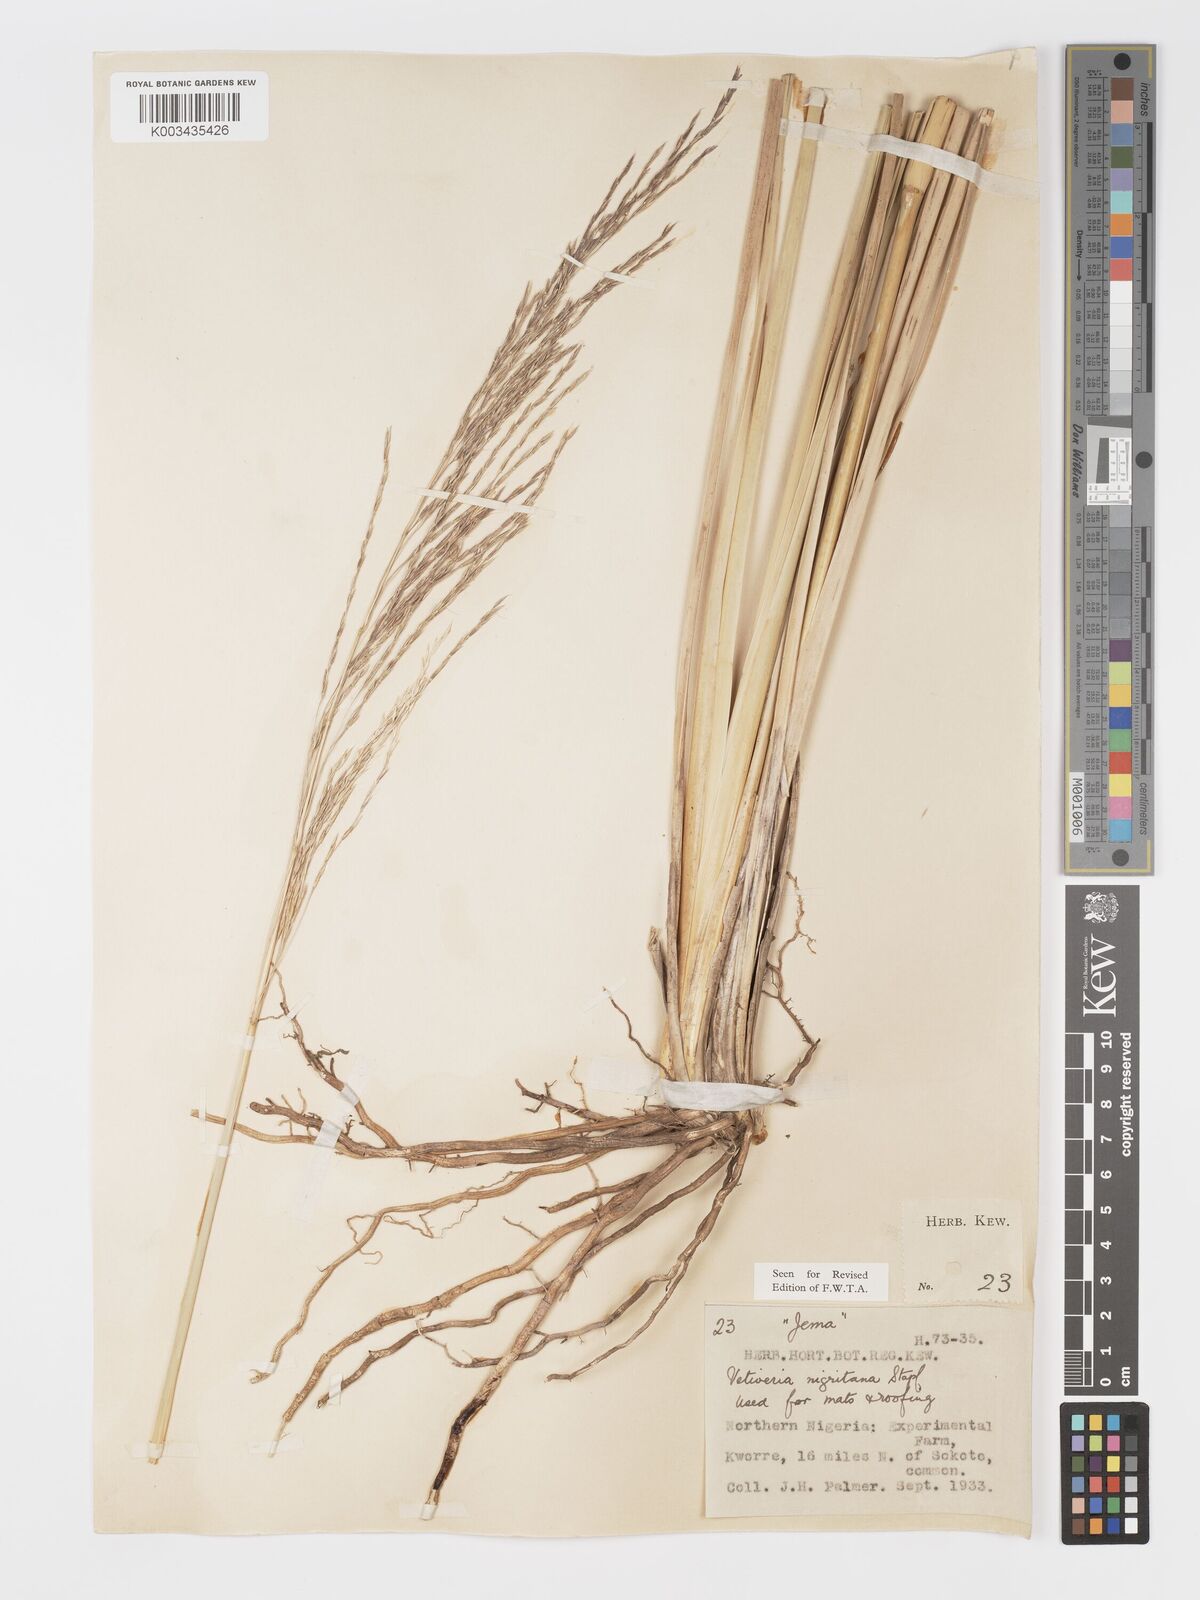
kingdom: Plantae
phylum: Tracheophyta
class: Liliopsida
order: Poales
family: Poaceae
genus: Chrysopogon
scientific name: Chrysopogon nigritanus
